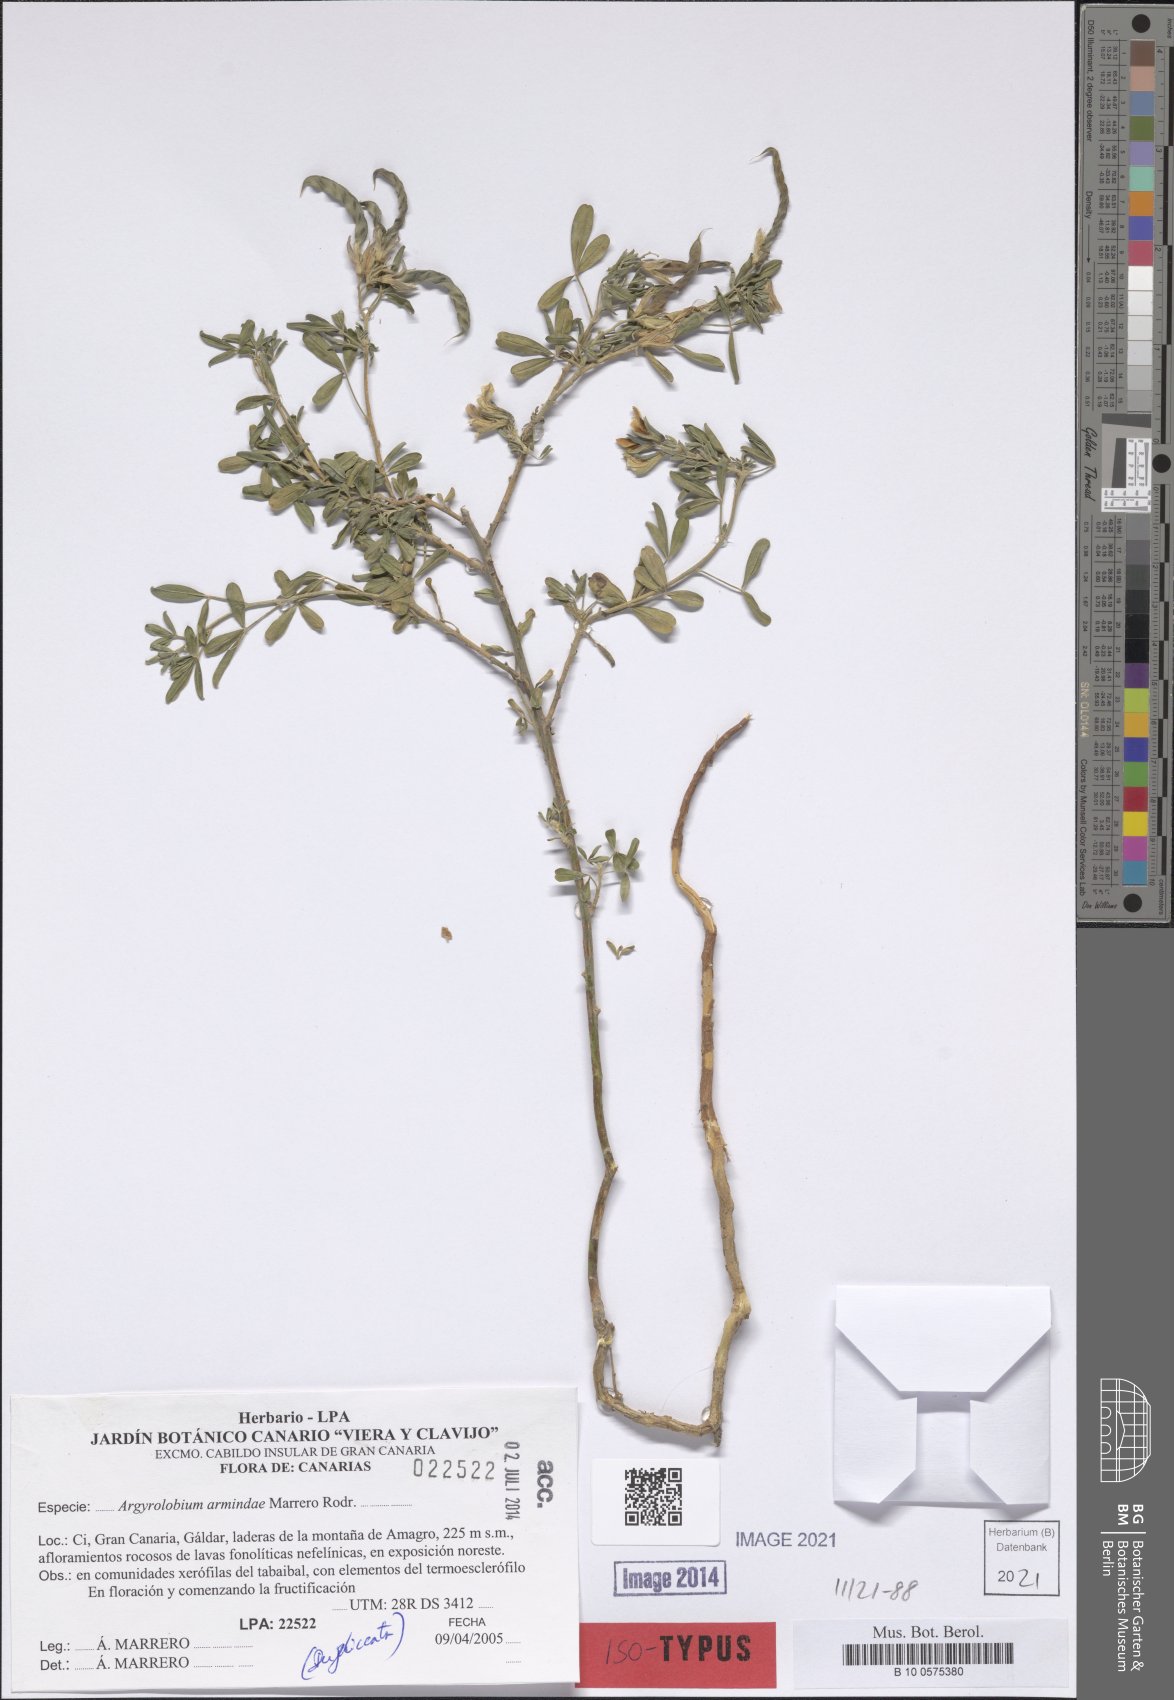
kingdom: Plantae
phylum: Tracheophyta
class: Magnoliopsida
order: Fabales
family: Fabaceae
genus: Argyrolobium
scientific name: Argyrolobium armindae
